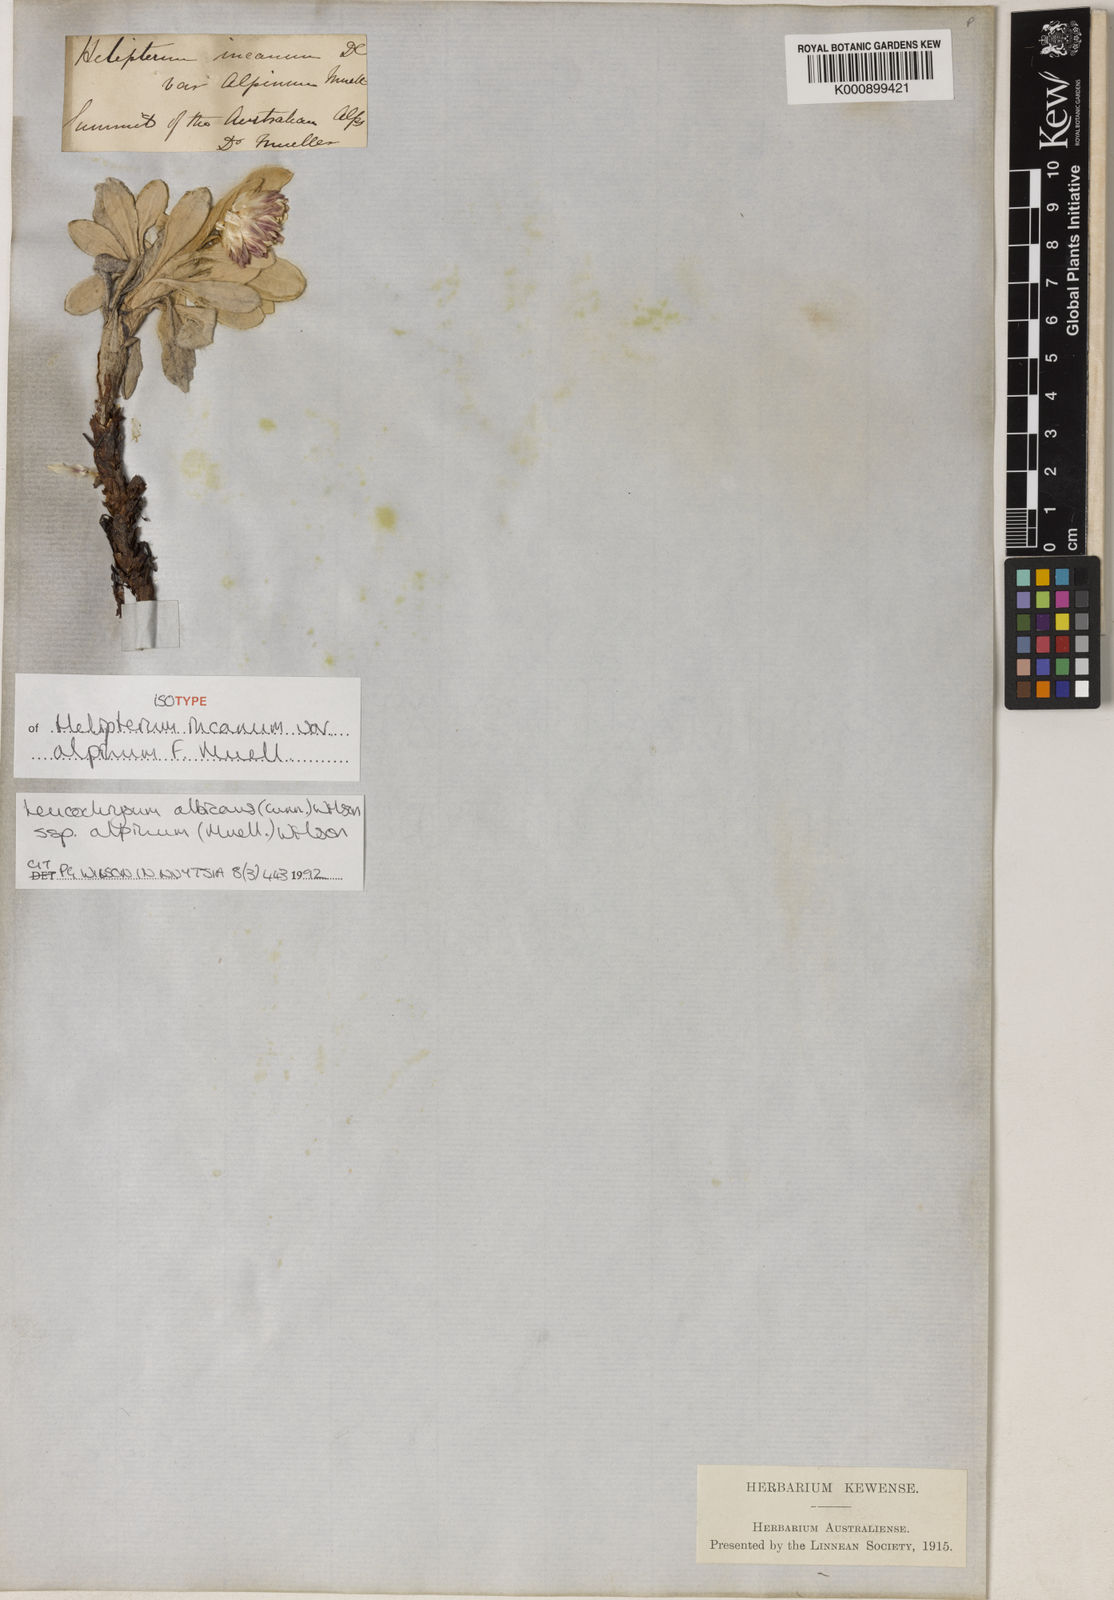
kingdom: Plantae
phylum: Tracheophyta
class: Magnoliopsida
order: Asterales
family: Asteraceae
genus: Leucochrysum
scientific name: Leucochrysum alpinum
